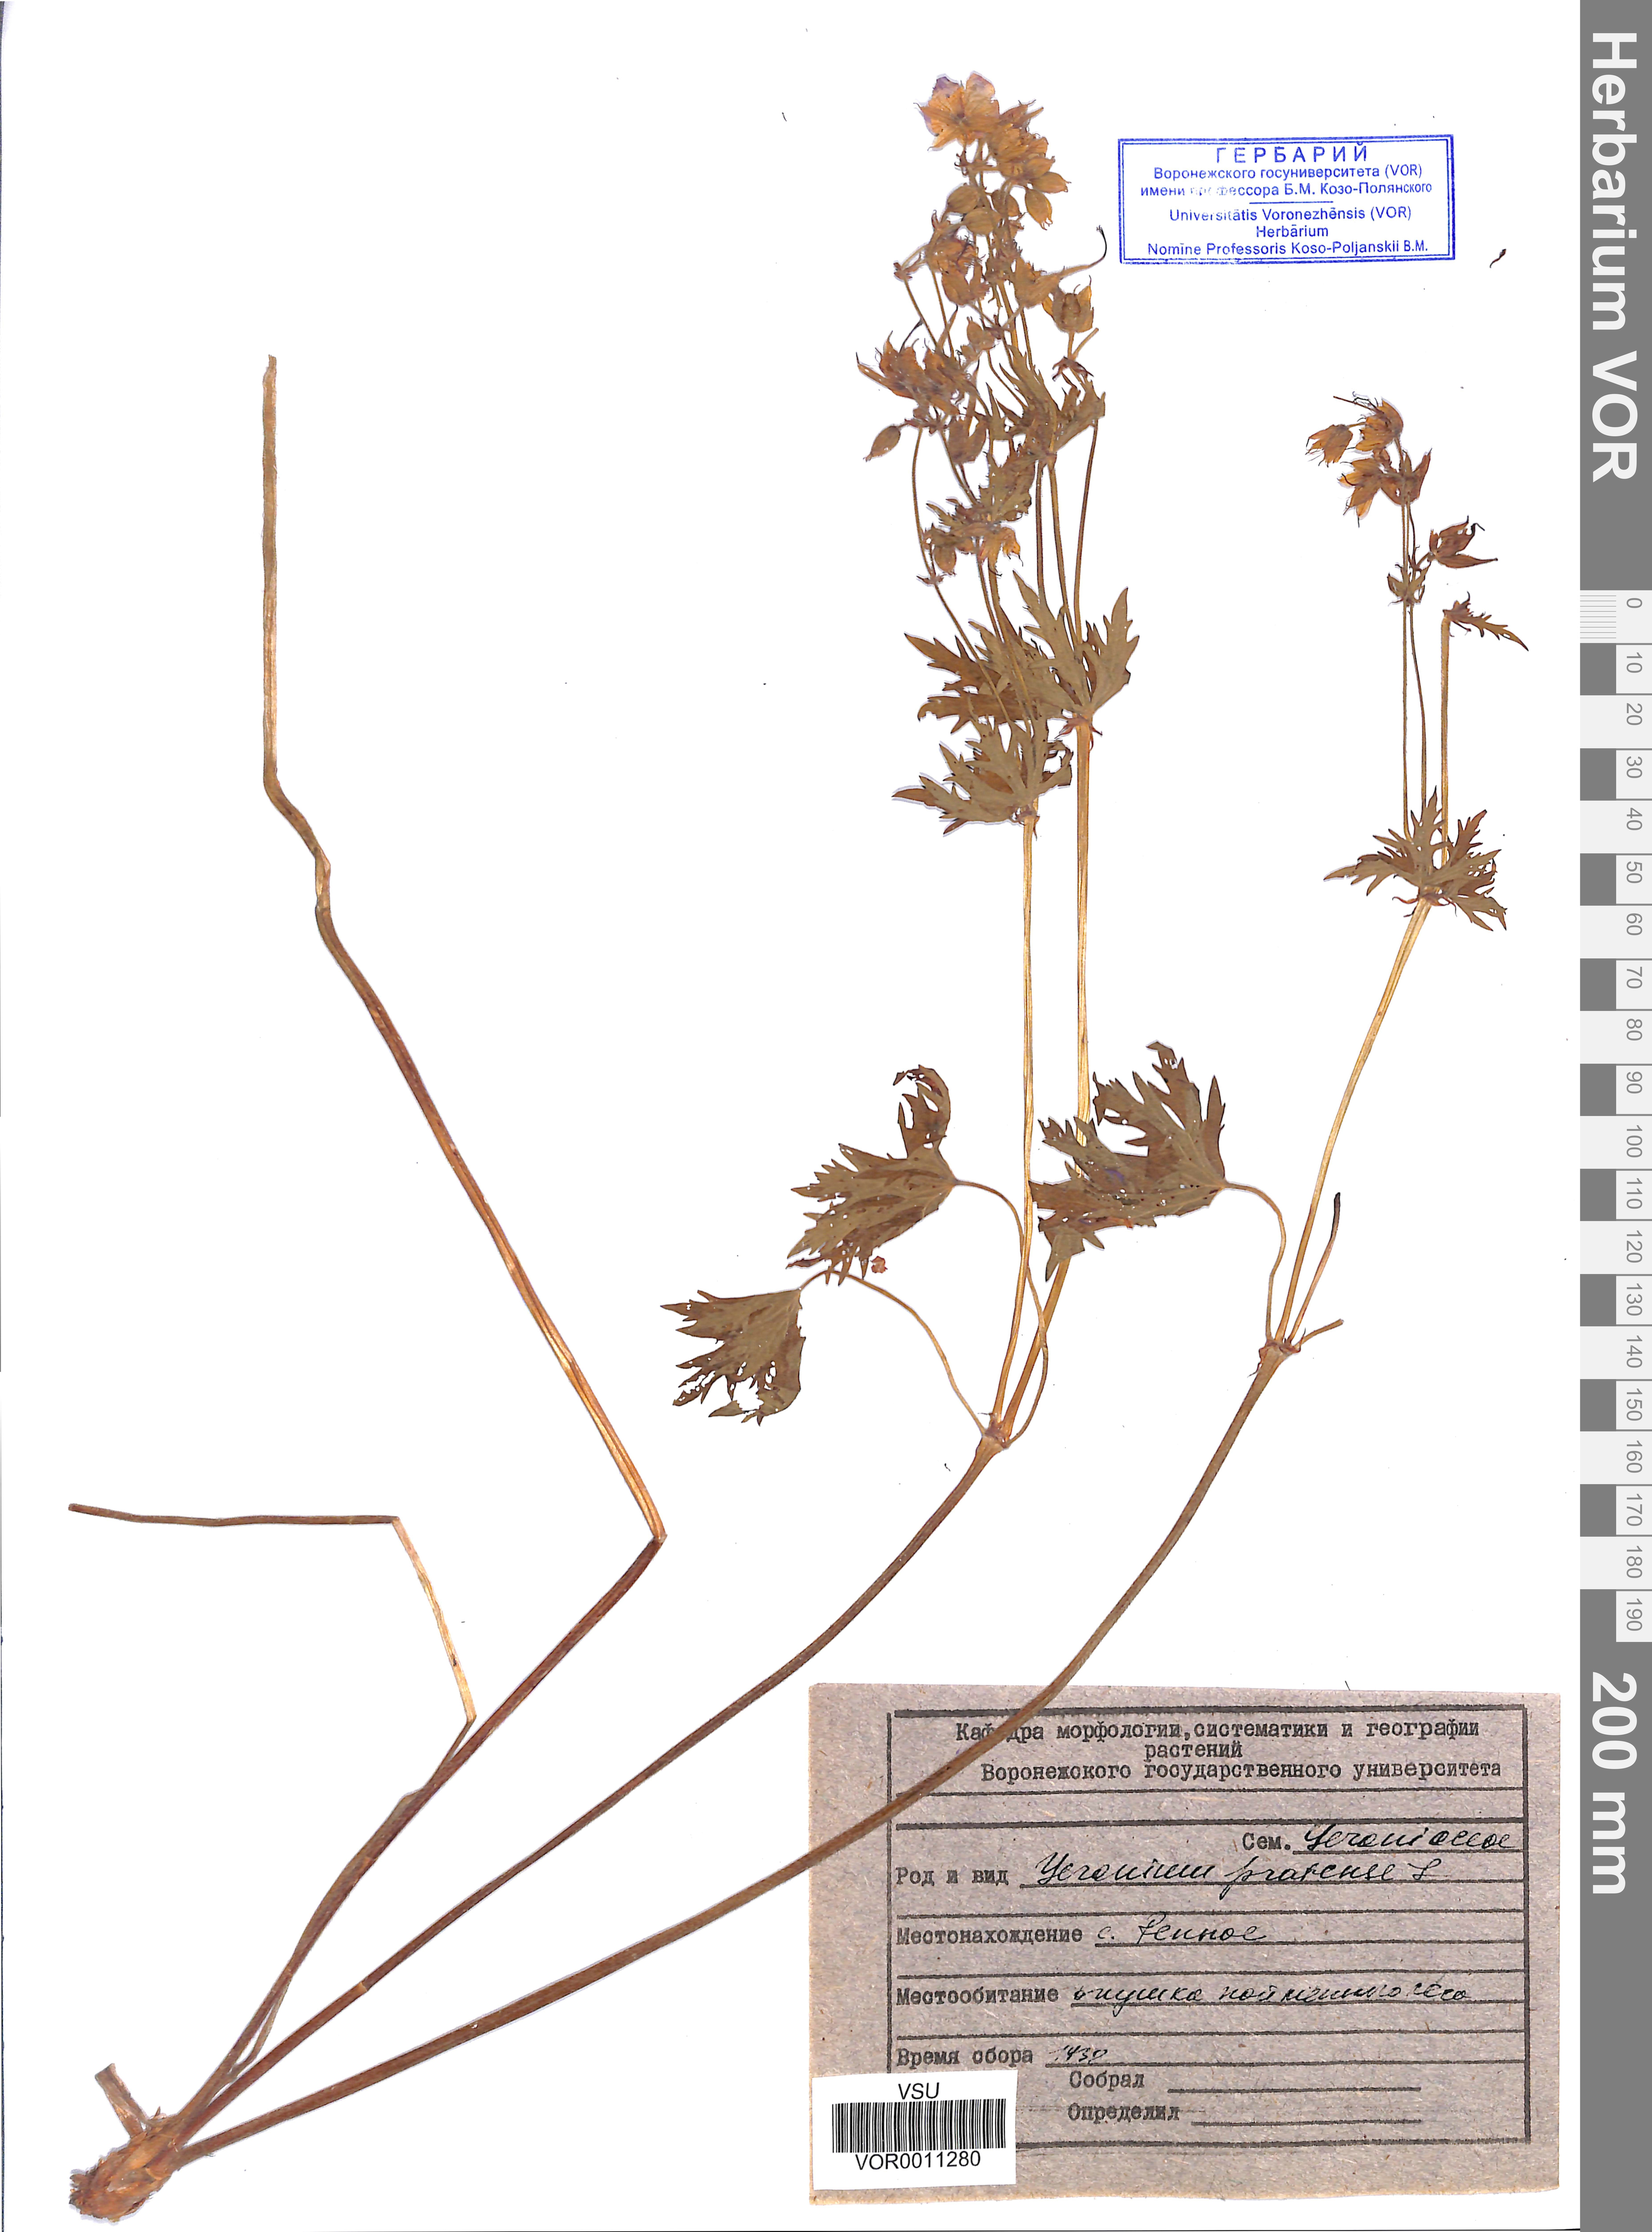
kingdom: Plantae
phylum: Tracheophyta
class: Magnoliopsida
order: Geraniales
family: Geraniaceae
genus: Geranium
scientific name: Geranium pratense
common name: Meadow crane's-bill
